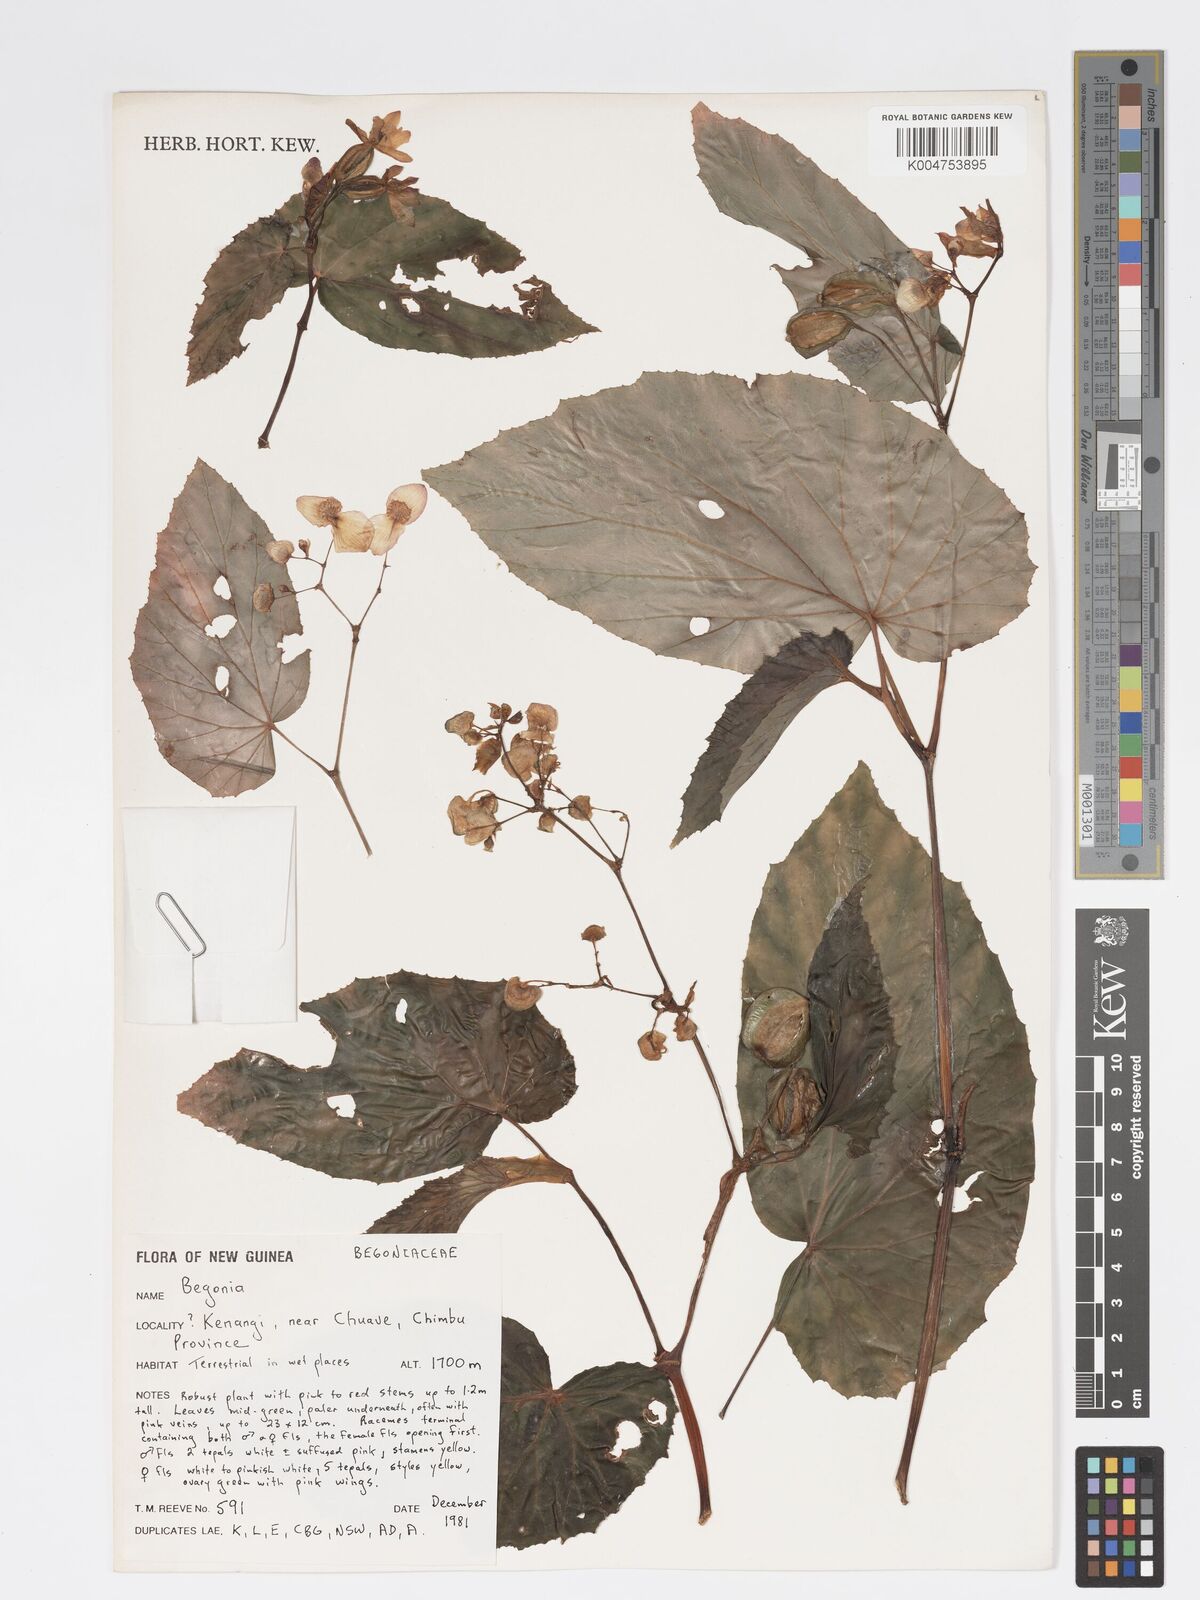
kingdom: Plantae
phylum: Tracheophyta
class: Magnoliopsida
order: Cucurbitales
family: Begoniaceae
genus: Begonia
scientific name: Begonia
